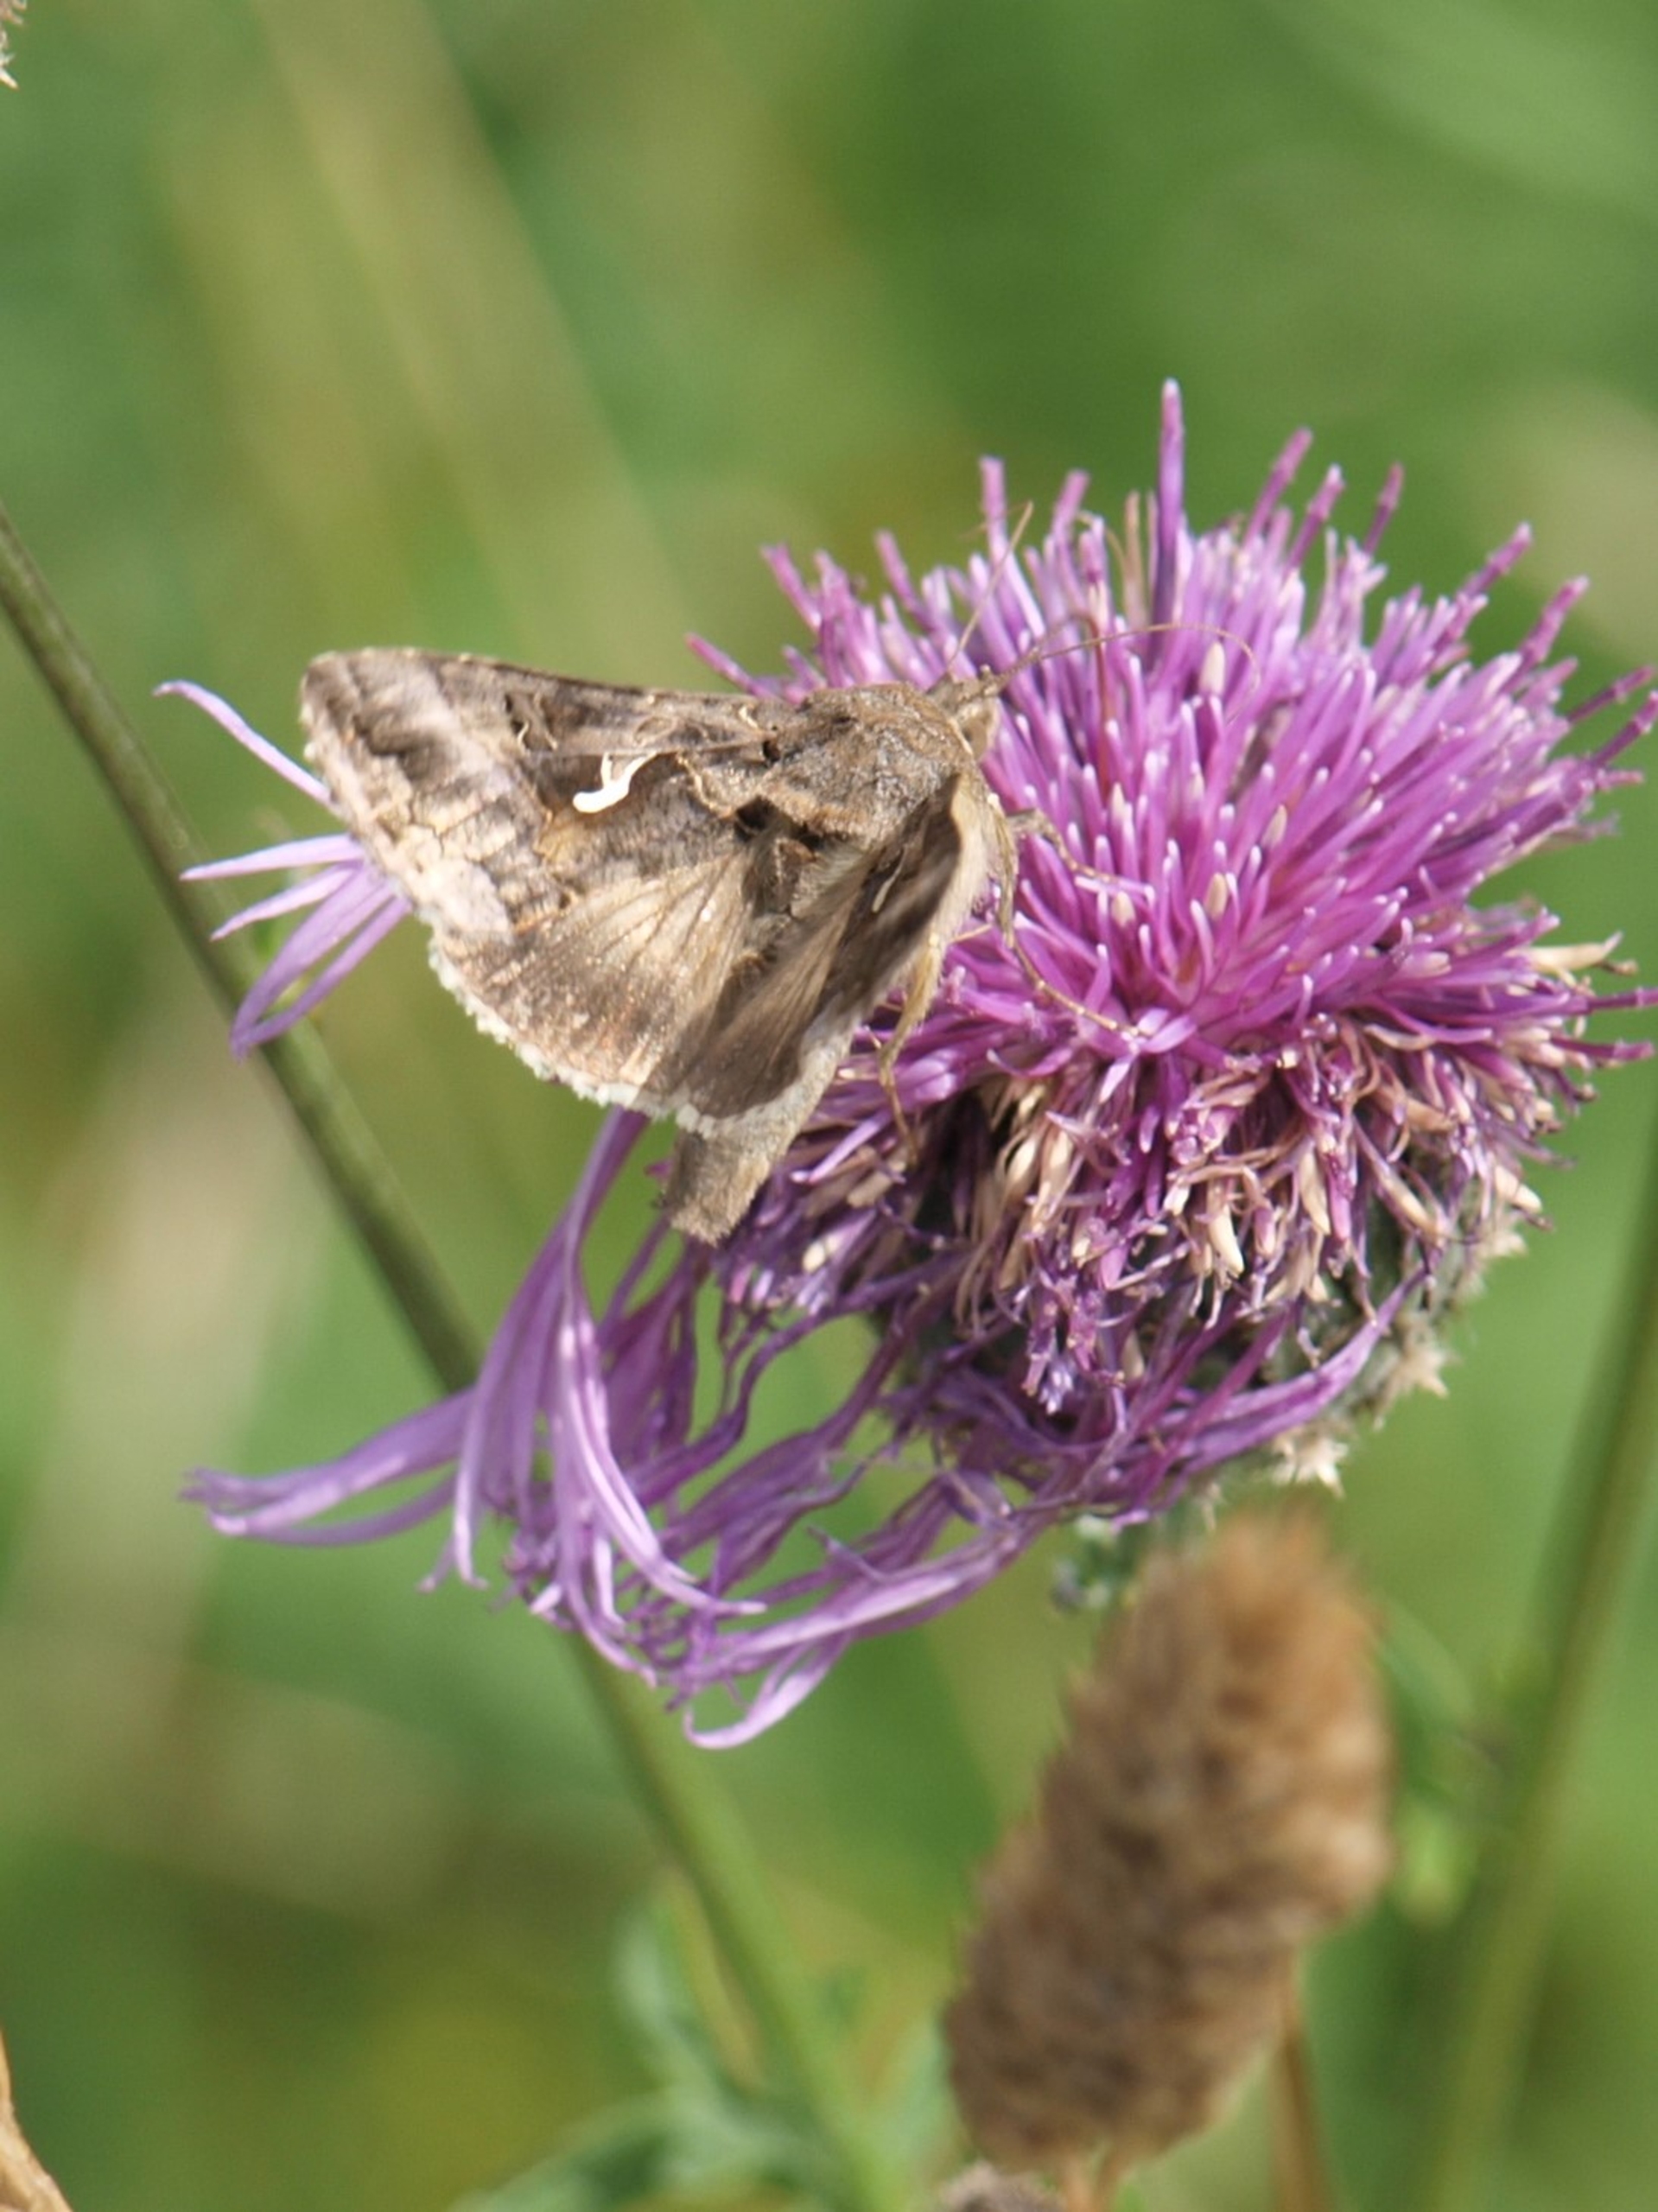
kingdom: Animalia
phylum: Arthropoda
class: Insecta
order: Lepidoptera
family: Noctuidae
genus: Autographa
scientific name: Autographa gamma
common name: Gammaugle
